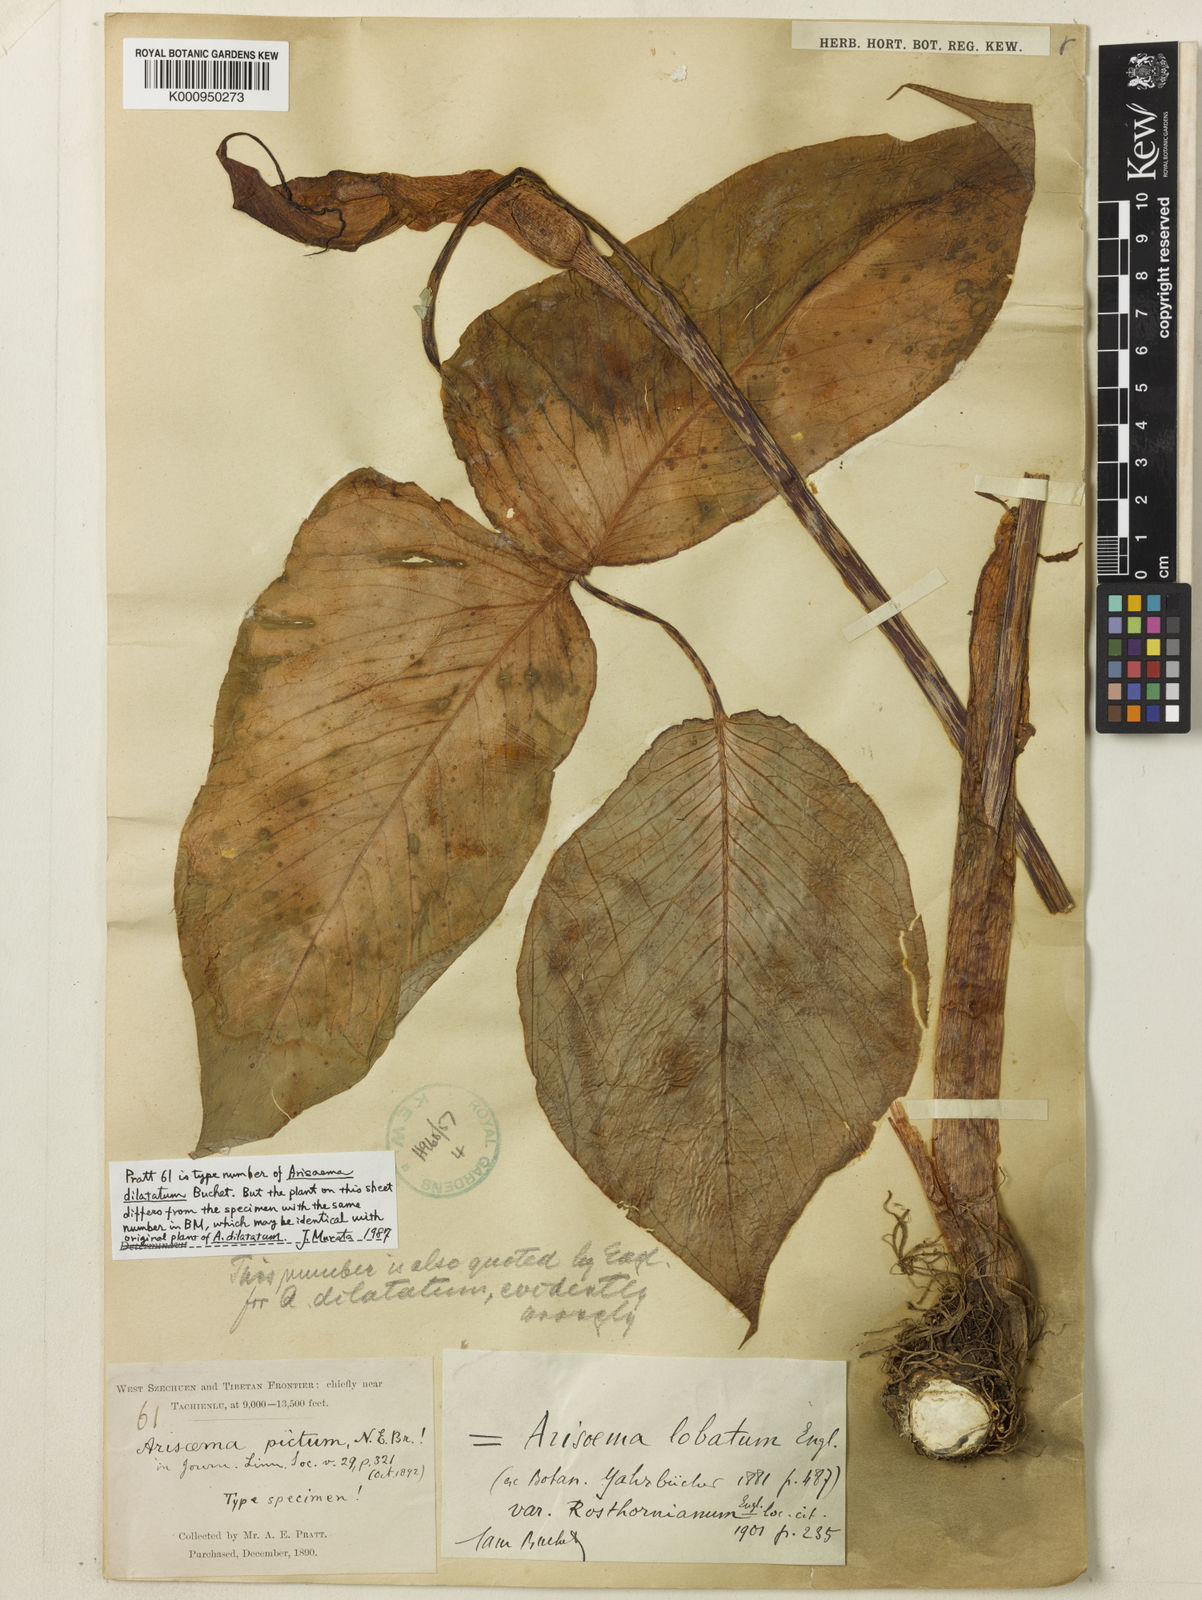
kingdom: Plantae
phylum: Tracheophyta
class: Liliopsida
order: Alismatales
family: Araceae
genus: Arisaema
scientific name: Arisaema lobatum
